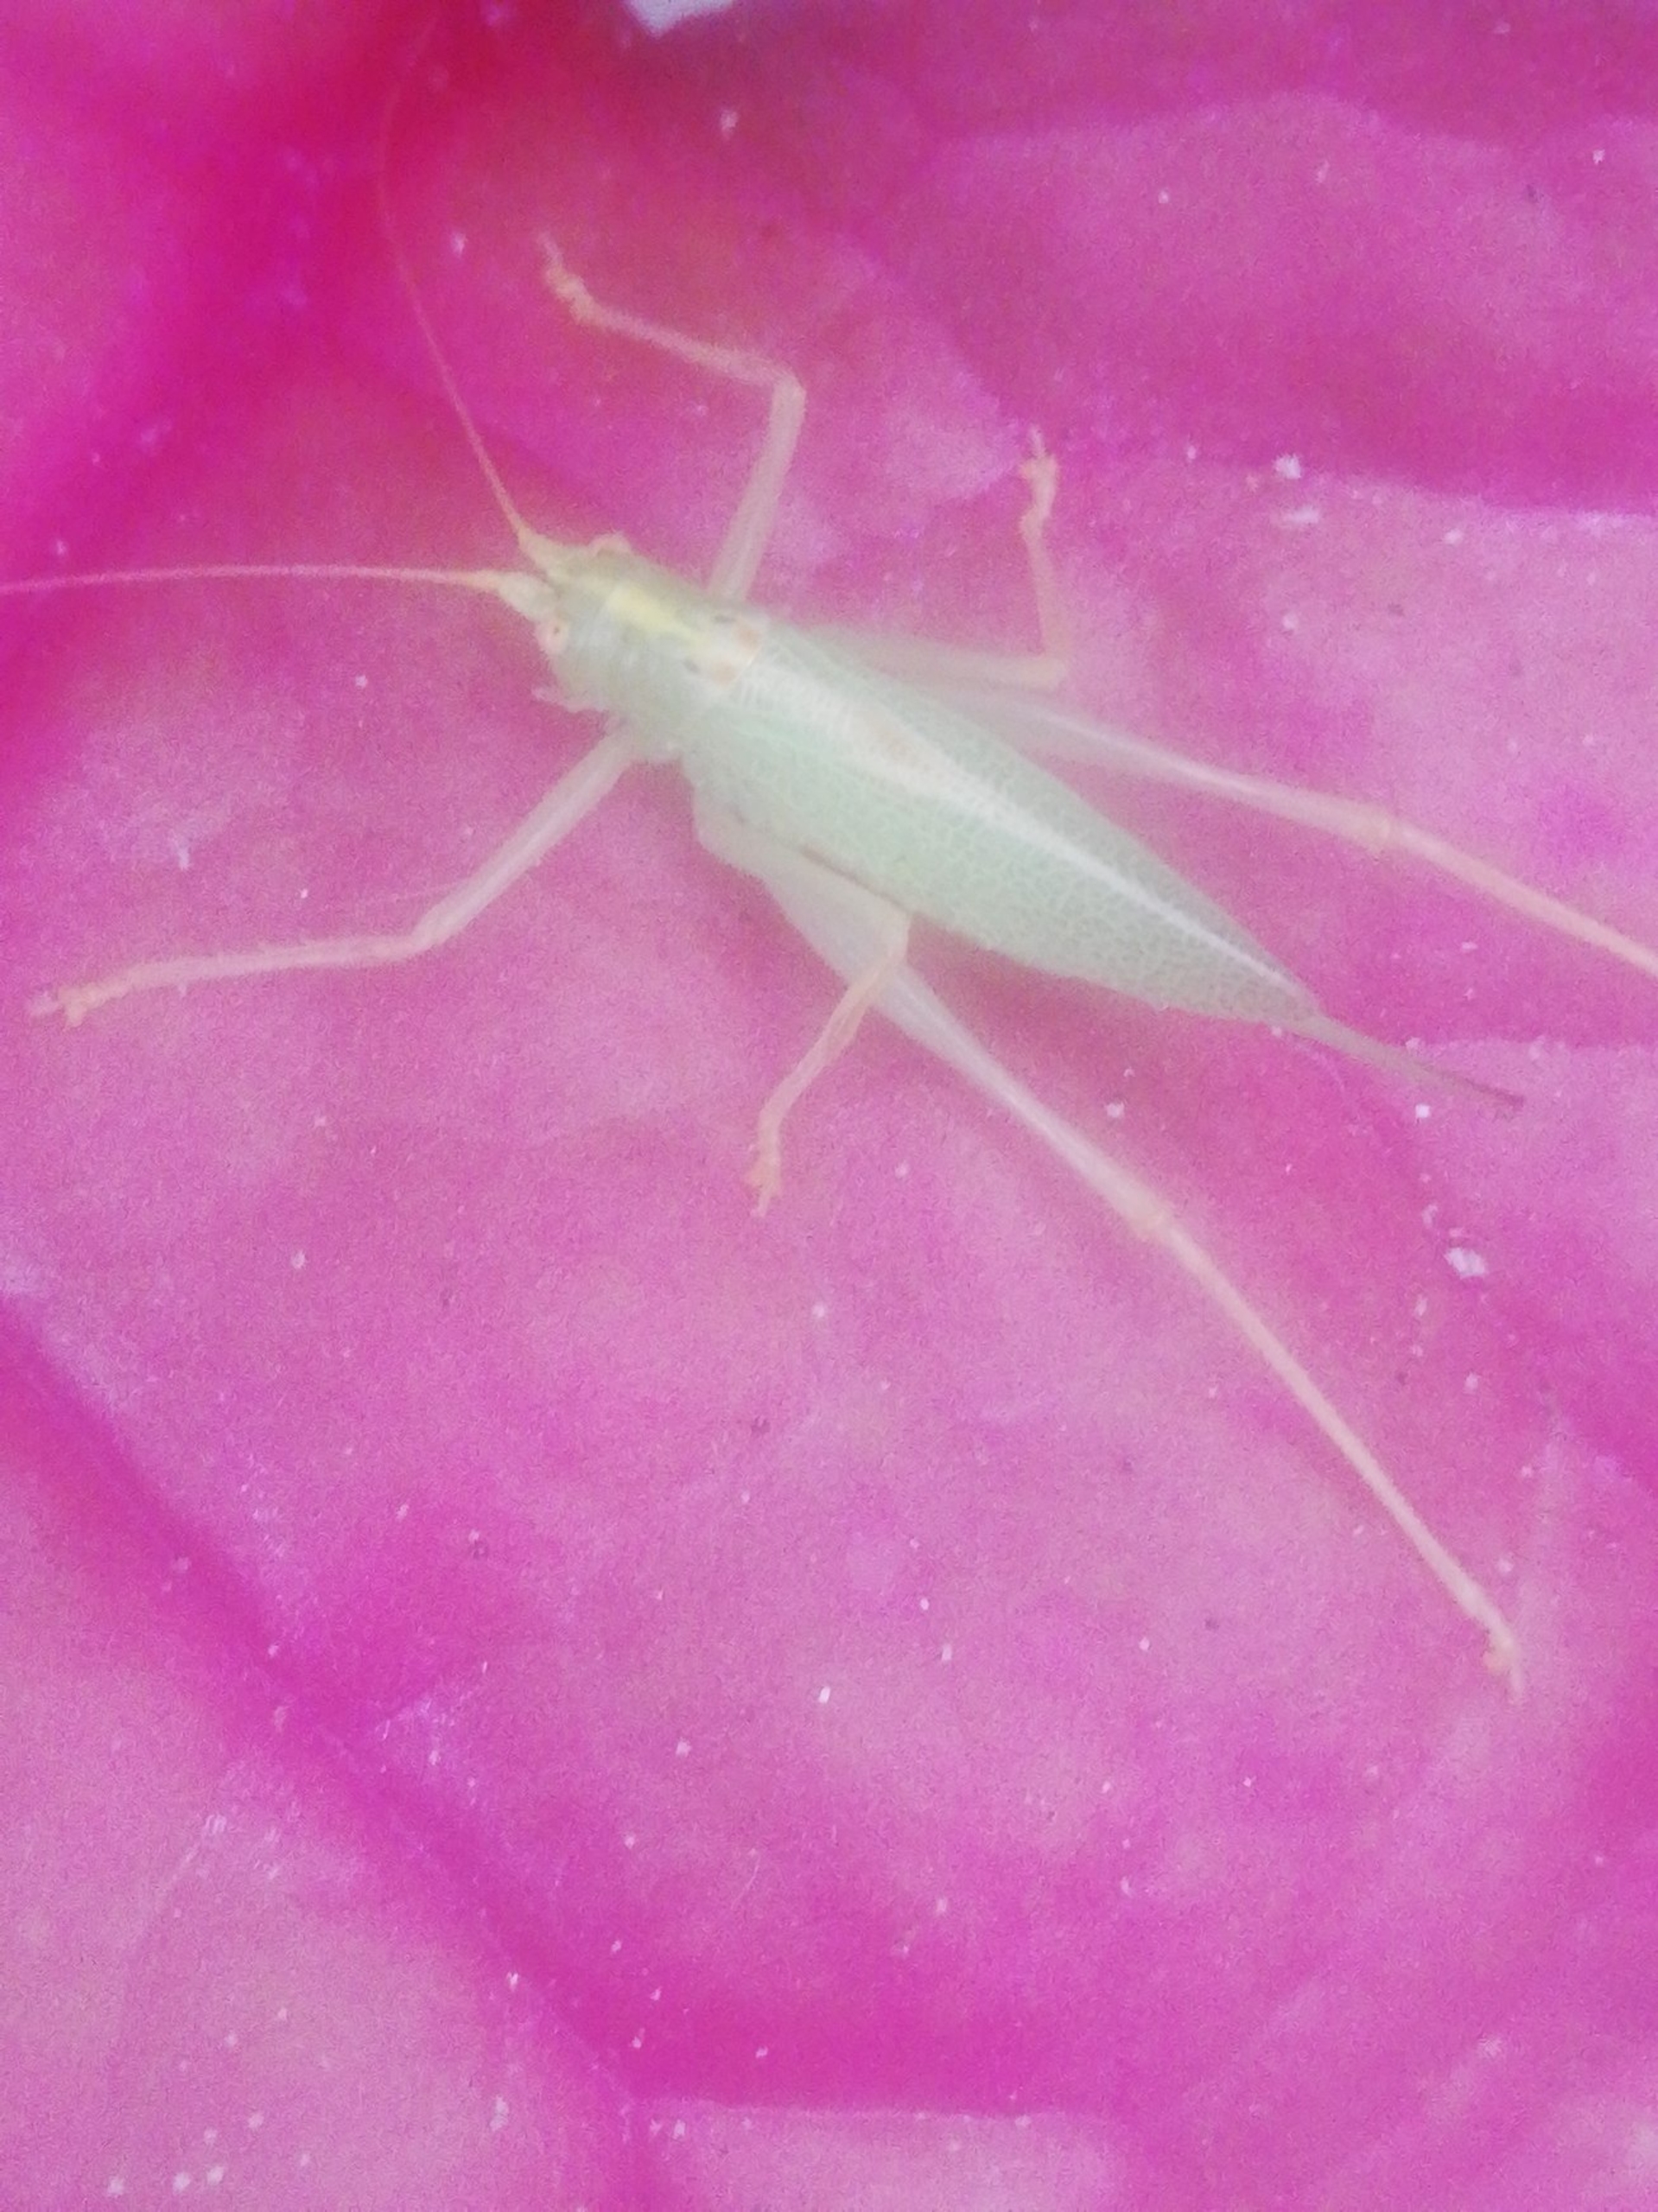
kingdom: Animalia
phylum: Arthropoda
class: Insecta
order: Orthoptera
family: Tettigoniidae
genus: Meconema
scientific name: Meconema thalassinum
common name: Egegræshoppe
